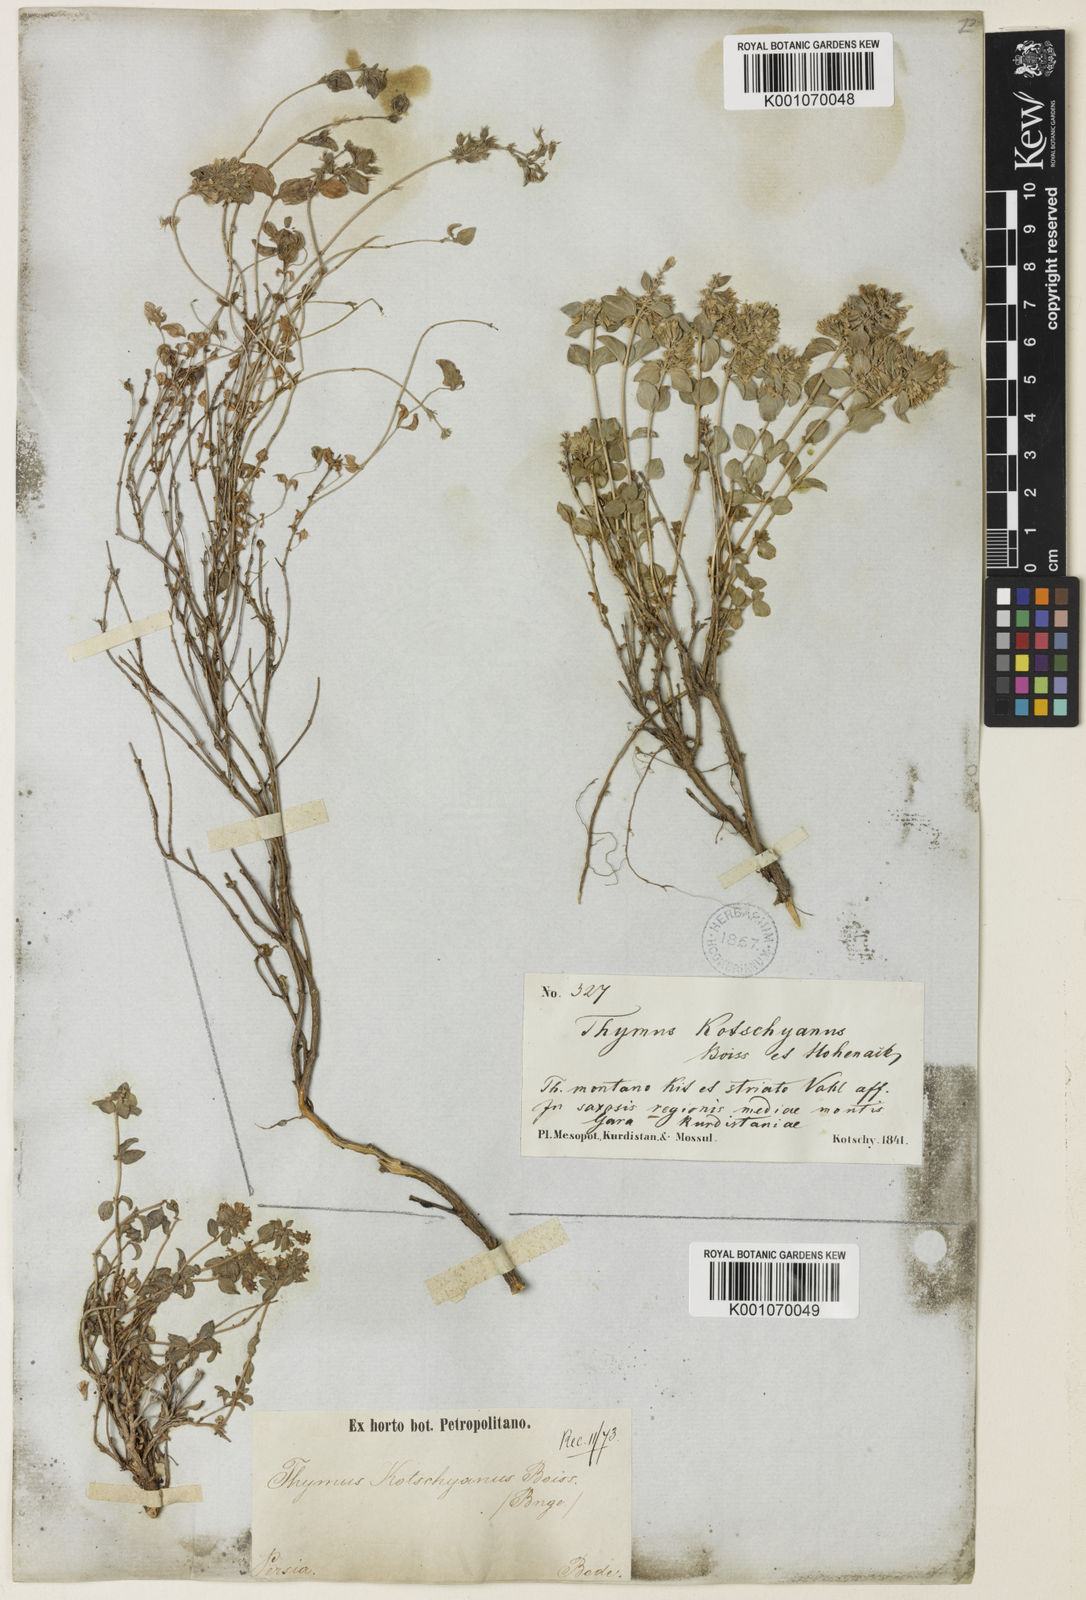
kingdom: Plantae
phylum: Tracheophyta
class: Magnoliopsida
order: Lamiales
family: Lamiaceae
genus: Thymus
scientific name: Thymus serpyllum
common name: Breckland thyme
